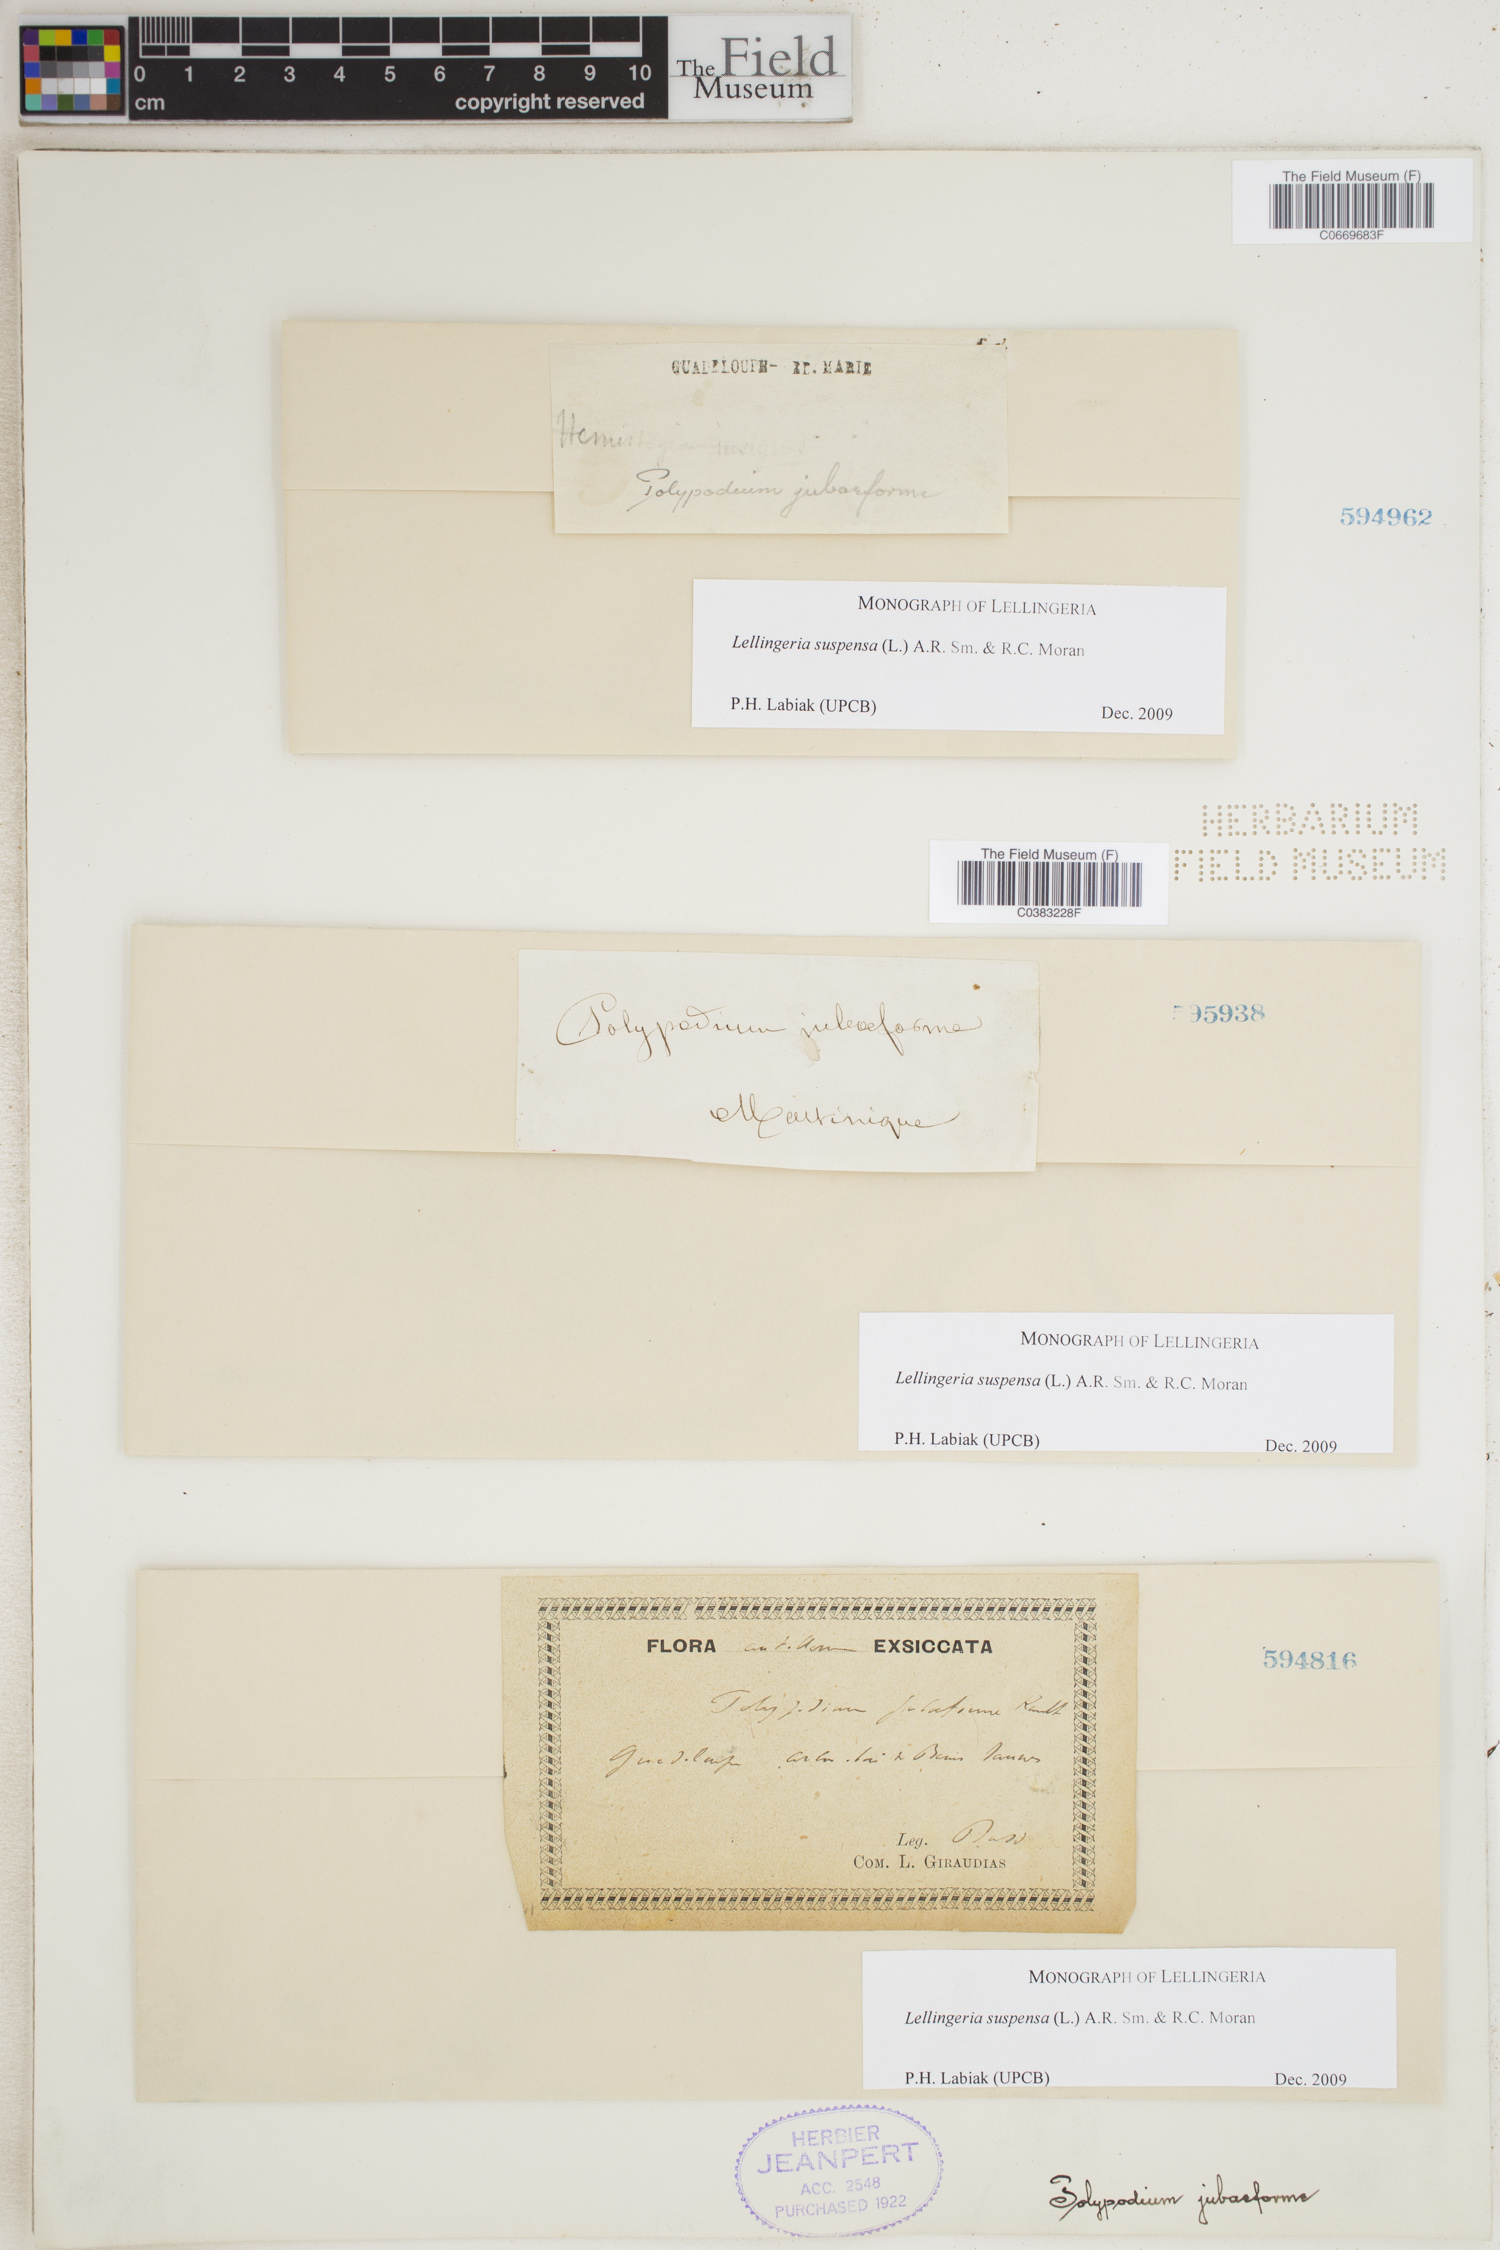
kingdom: Plantae
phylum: Tracheophyta
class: Polypodiopsida
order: Polypodiales
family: Polypodiaceae
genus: Lellingeria
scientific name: Lellingeria suspensa
